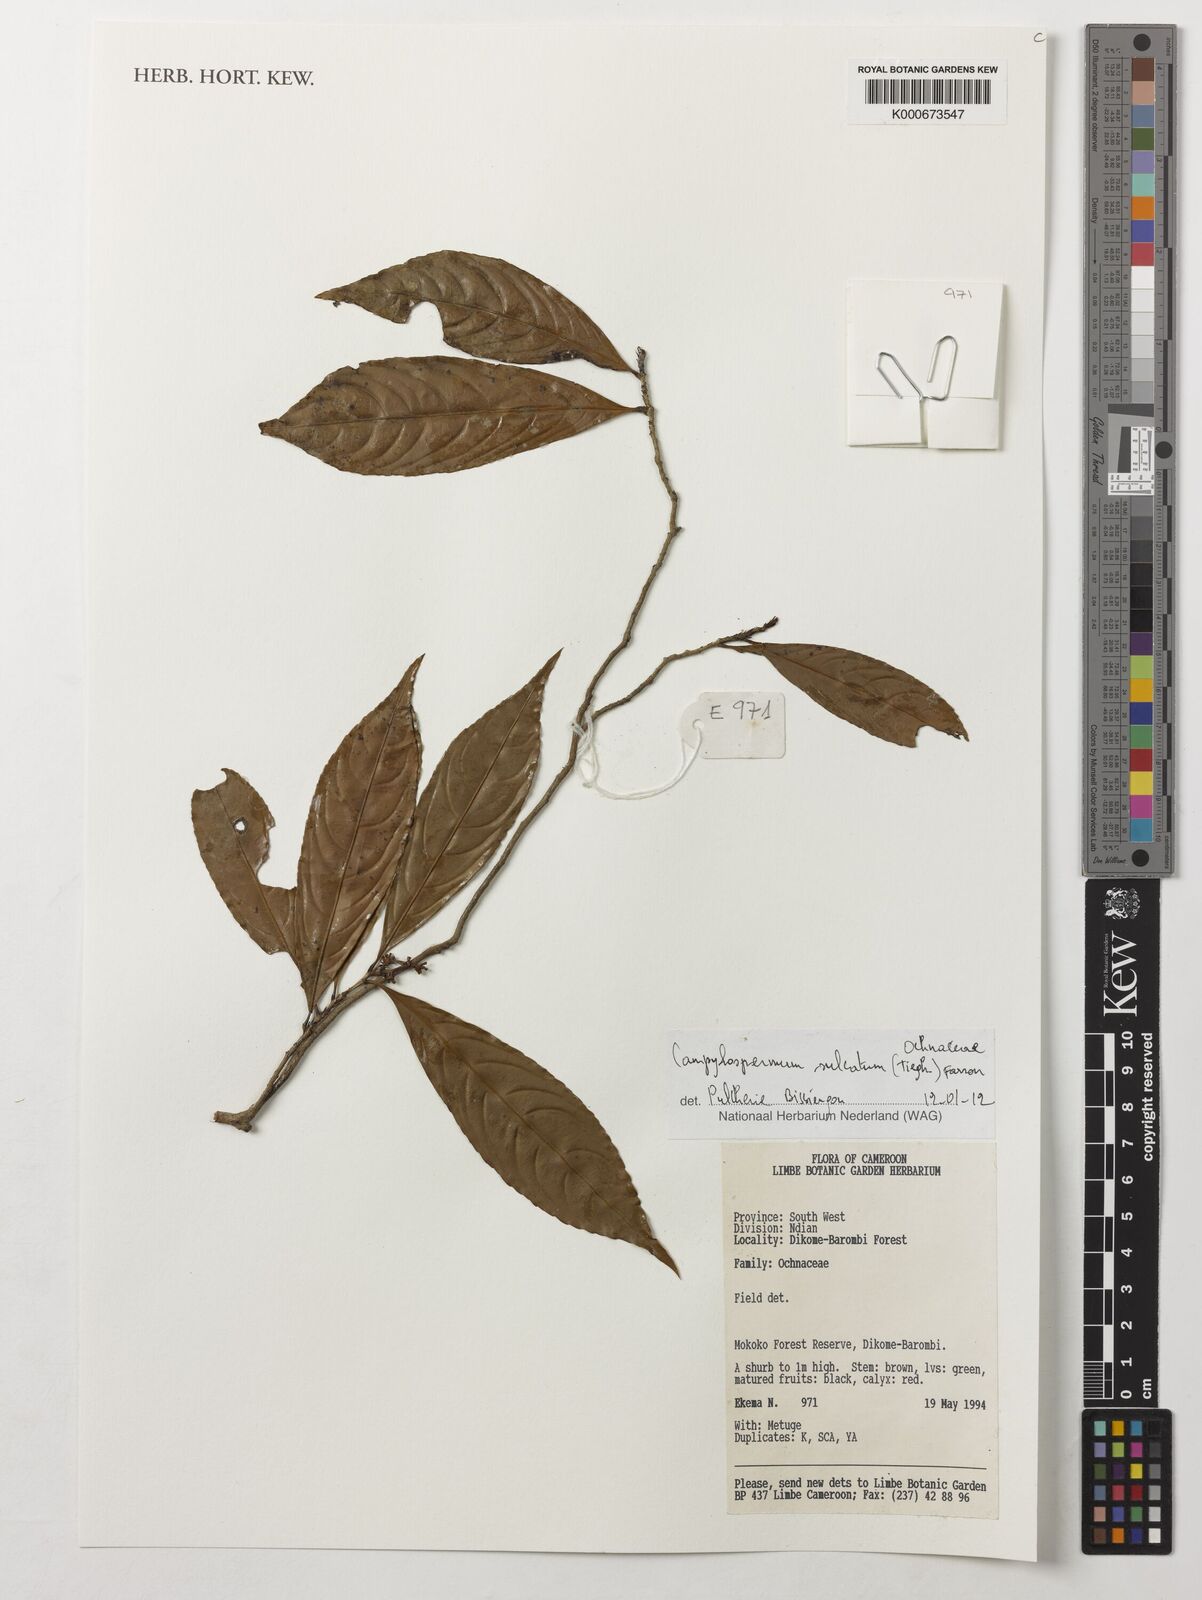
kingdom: Plantae
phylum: Tracheophyta
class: Magnoliopsida
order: Malpighiales
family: Ochnaceae
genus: Campylospermum
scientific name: Campylospermum sulcatum
